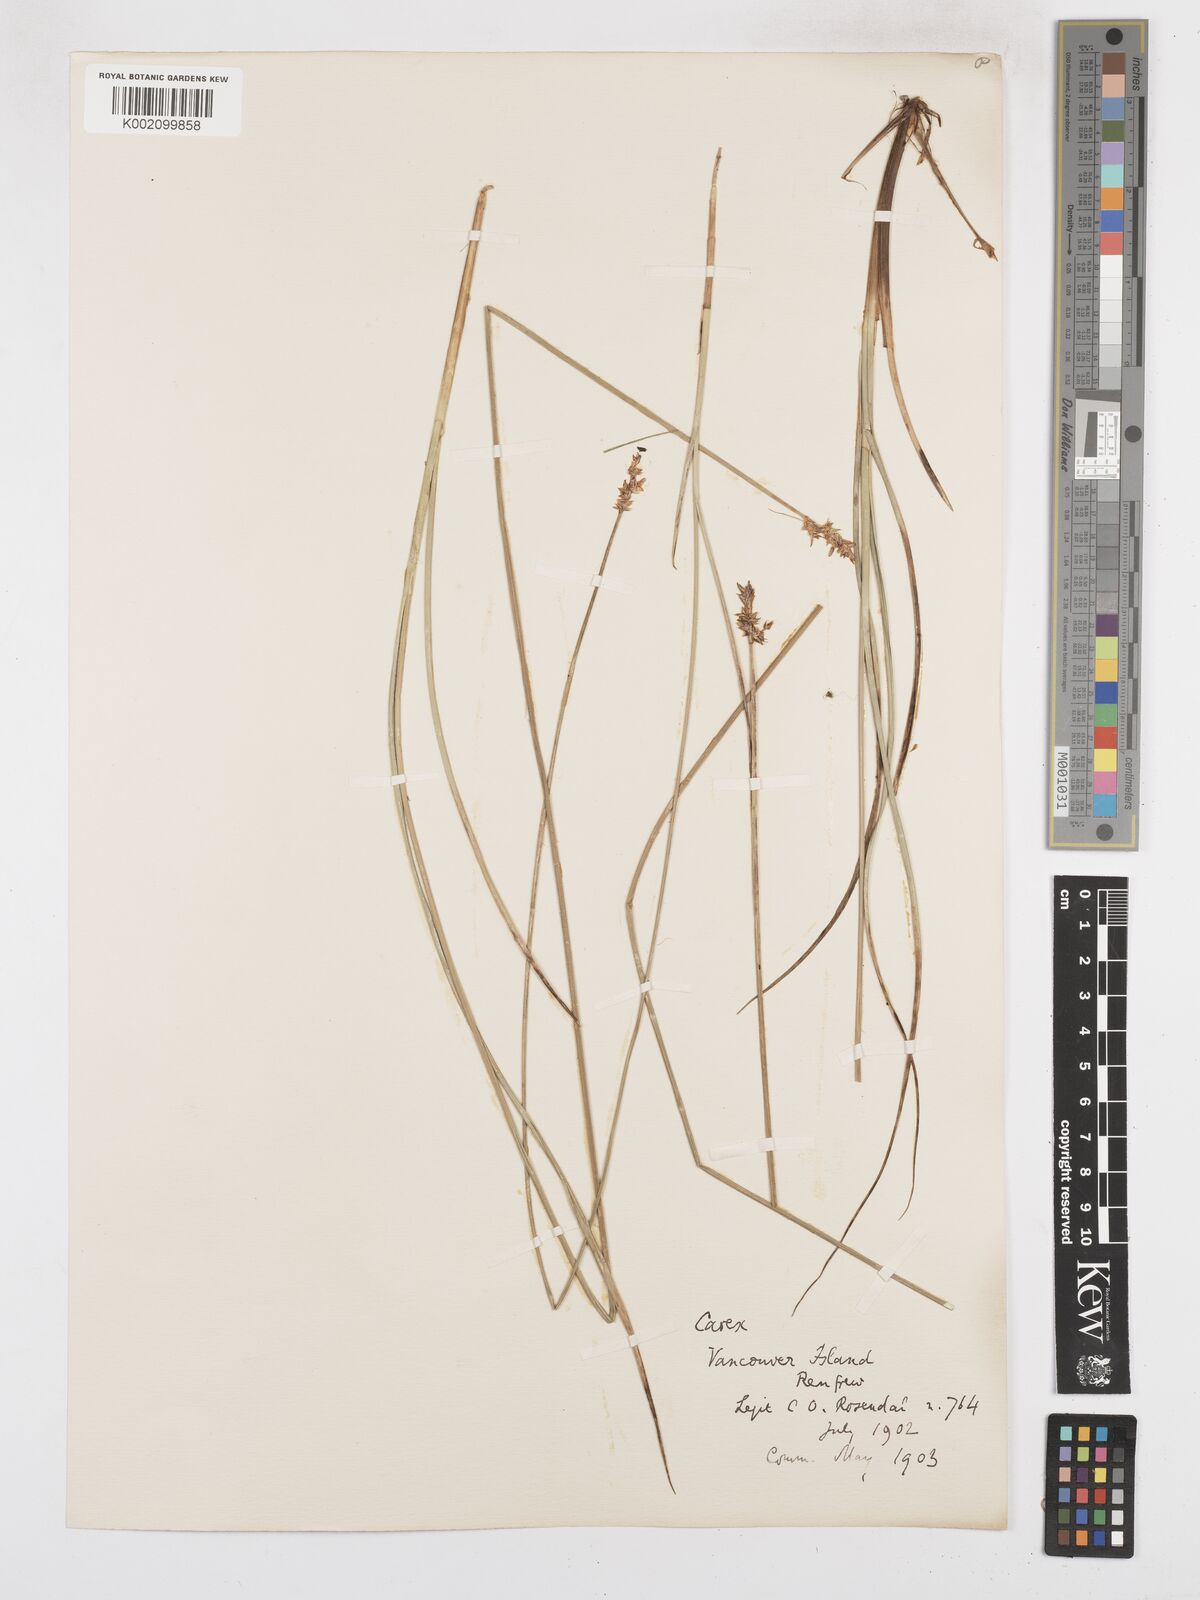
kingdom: Plantae
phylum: Tracheophyta
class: Liliopsida
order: Poales
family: Cyperaceae
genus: Carex
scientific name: Carex arcta
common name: Bear sedge
